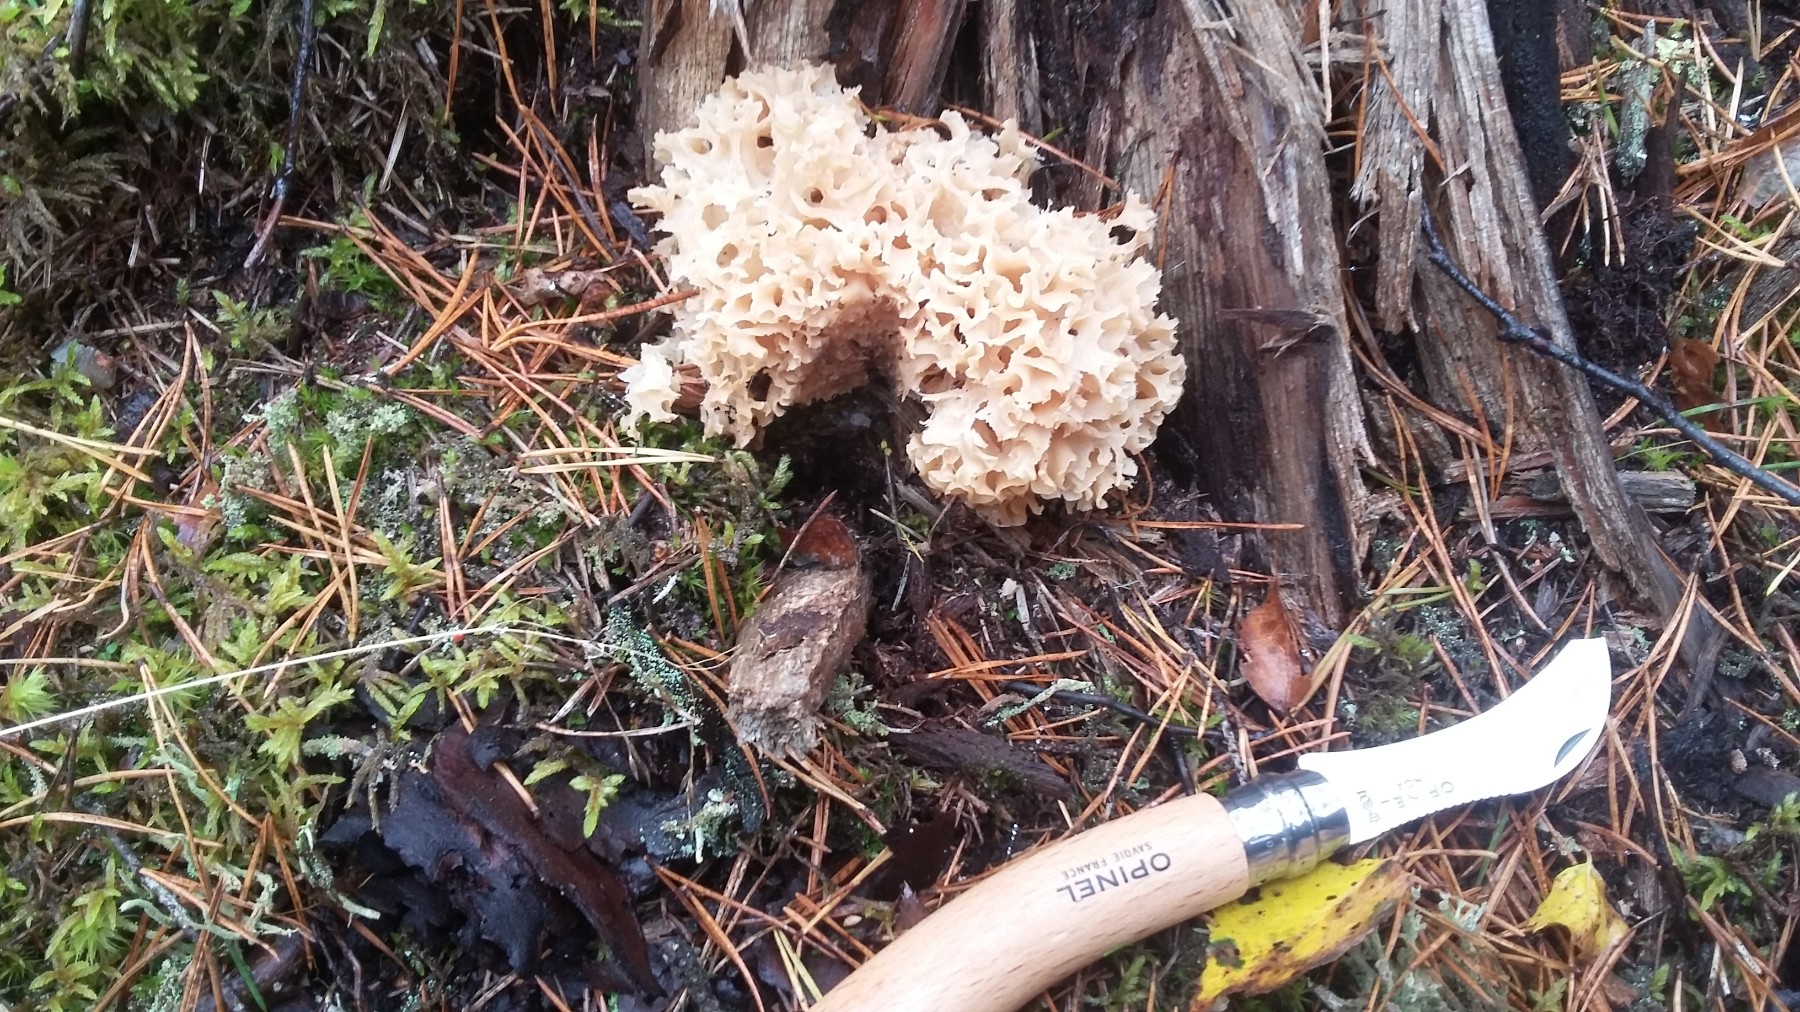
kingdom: Fungi
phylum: Basidiomycota
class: Agaricomycetes
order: Polyporales
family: Sparassidaceae
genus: Sparassis
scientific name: Sparassis crispa
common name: kruset blomkålssvamp
